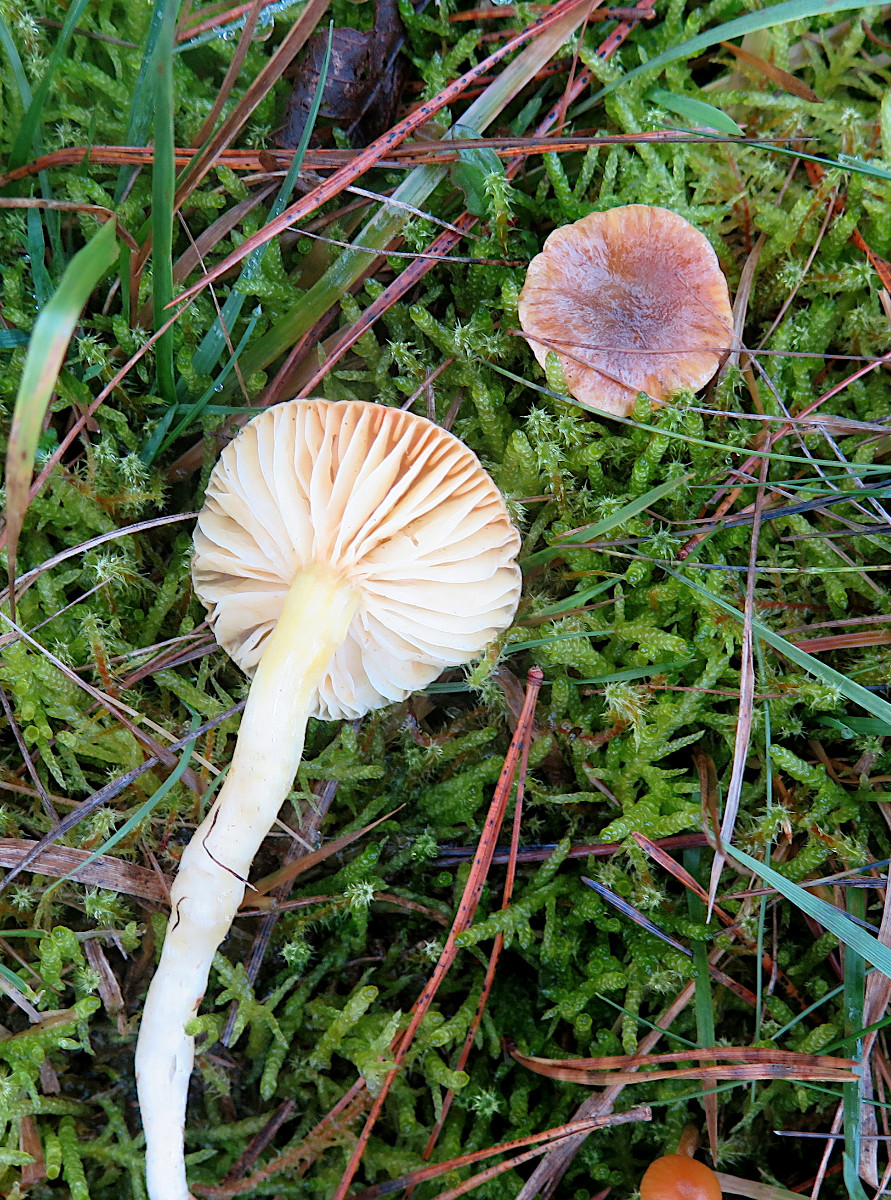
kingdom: Fungi
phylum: Basidiomycota
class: Agaricomycetes
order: Agaricales
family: Hygrophoraceae
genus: Hygrophorus
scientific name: Hygrophorus hypothejus
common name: frost-sneglehat
